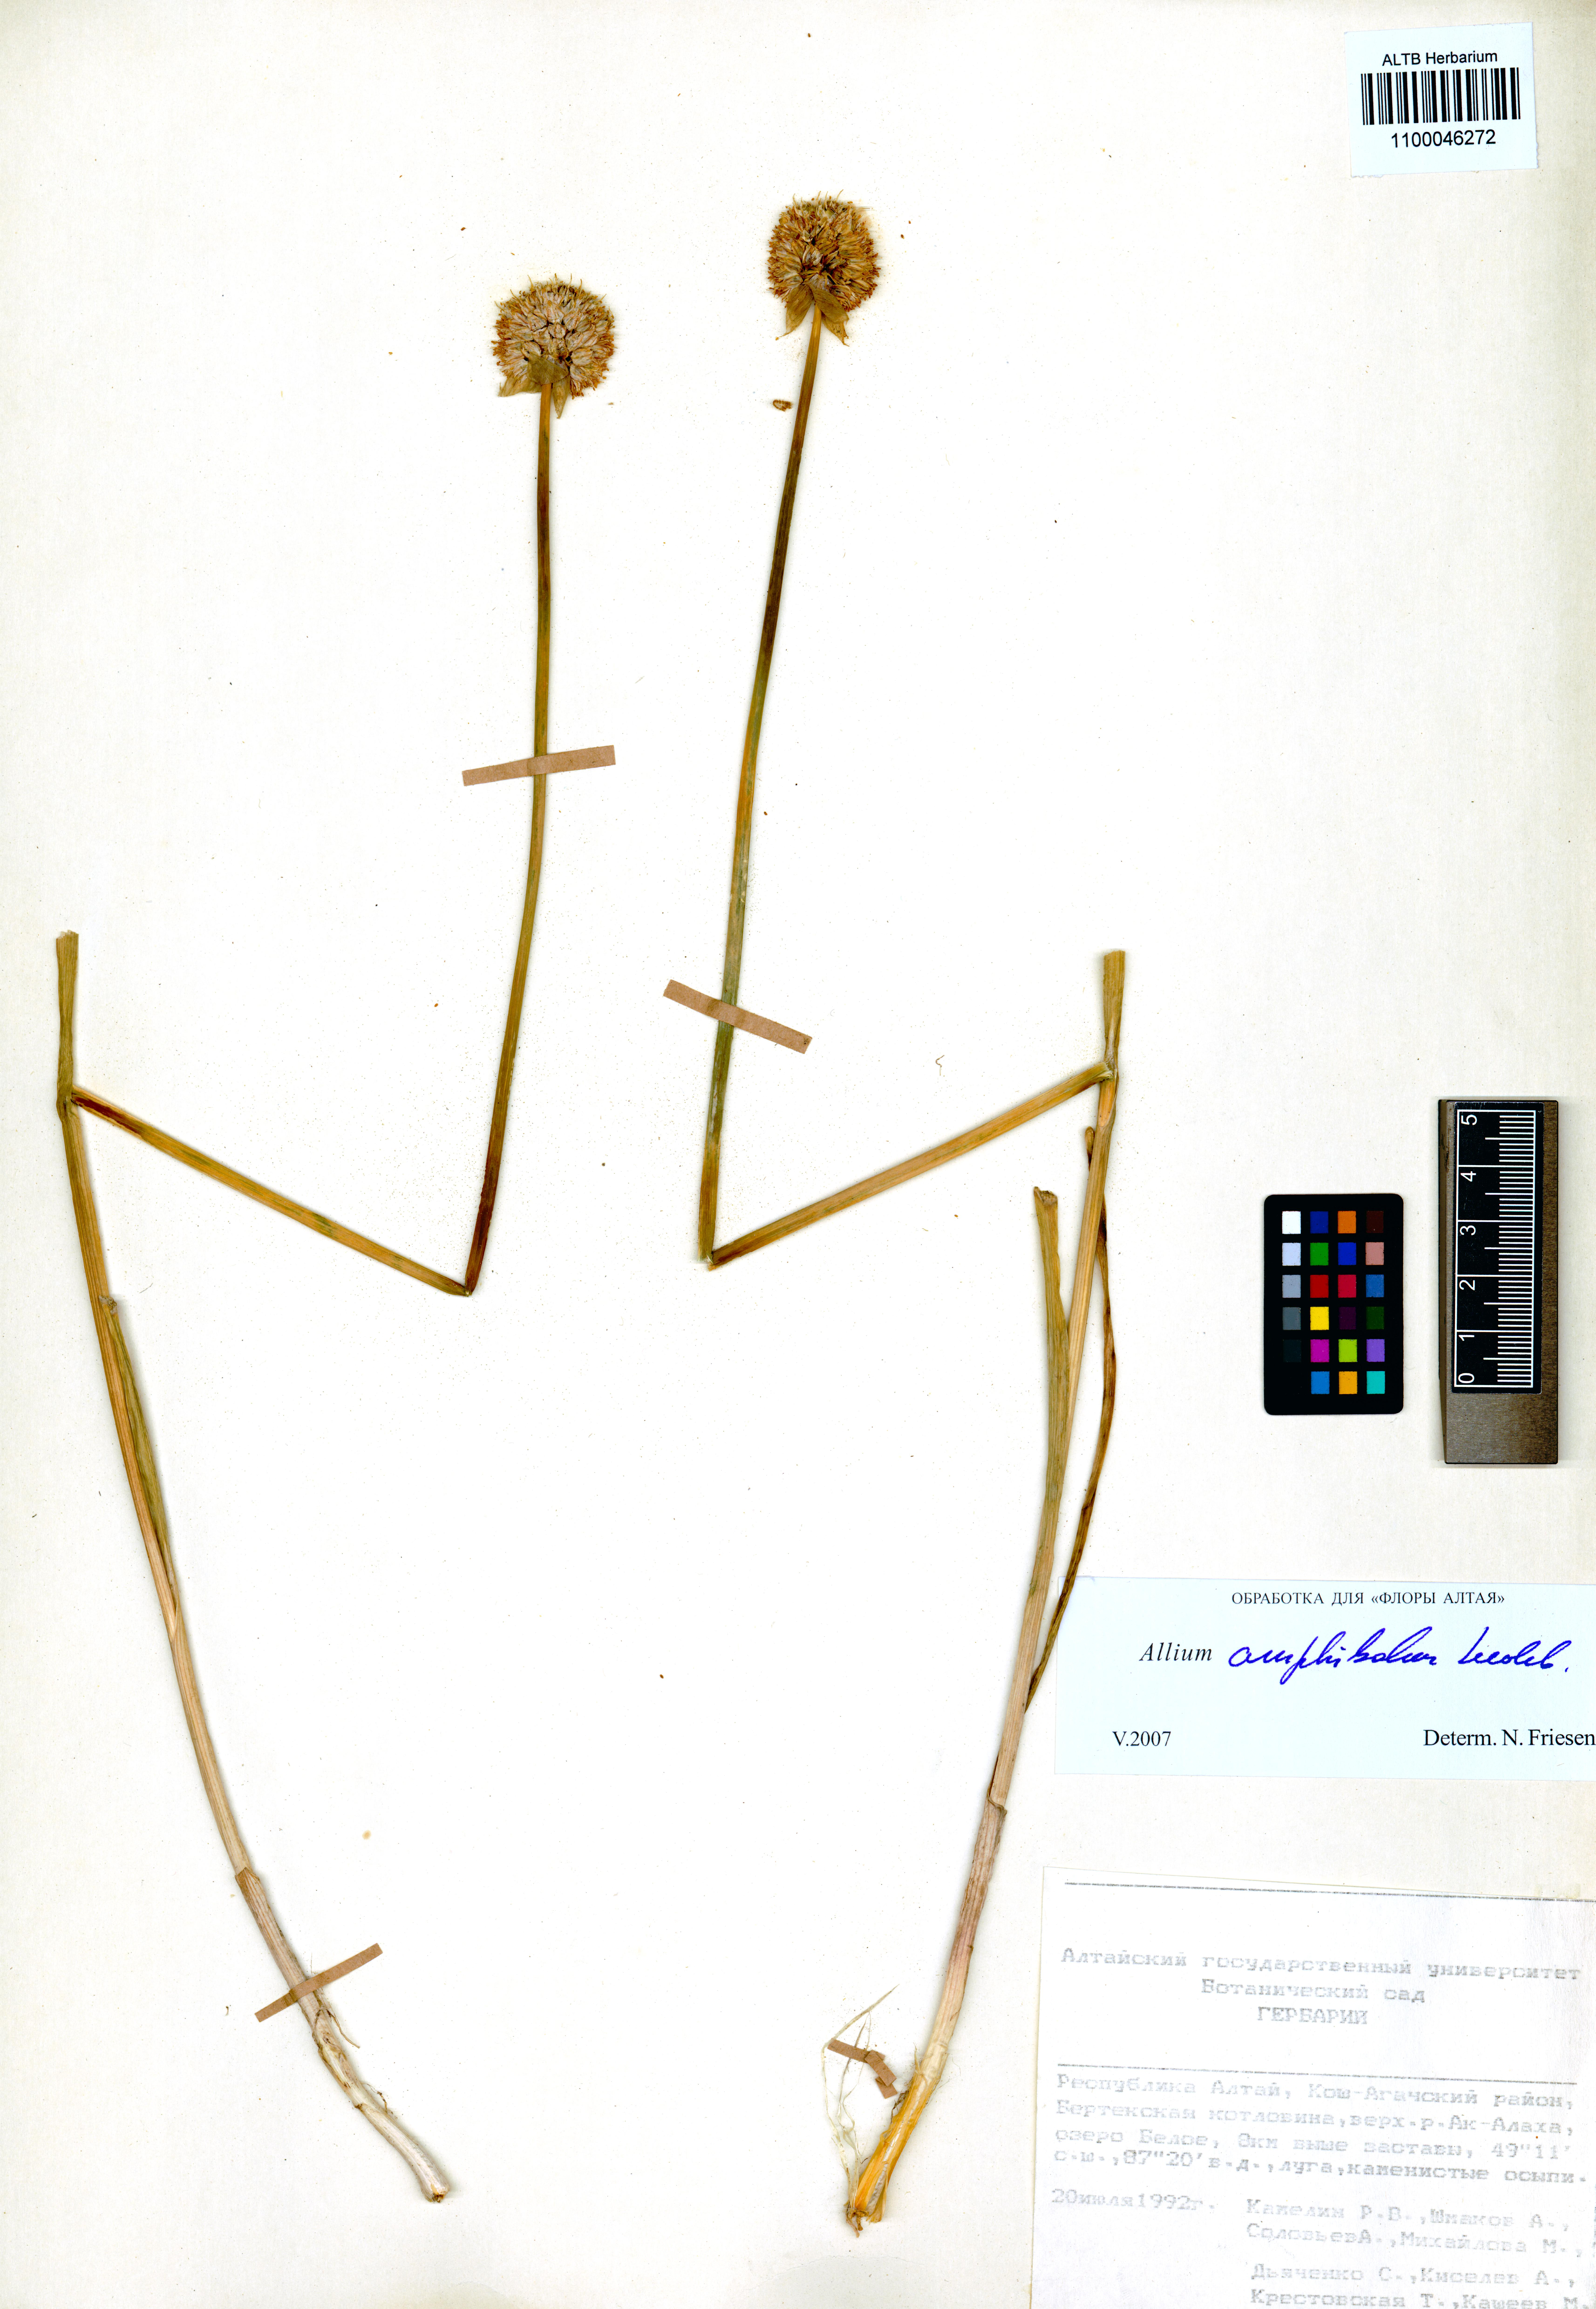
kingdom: Plantae
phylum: Tracheophyta
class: Liliopsida
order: Asparagales
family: Amaryllidaceae
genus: Allium
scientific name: Allium amphibolum
